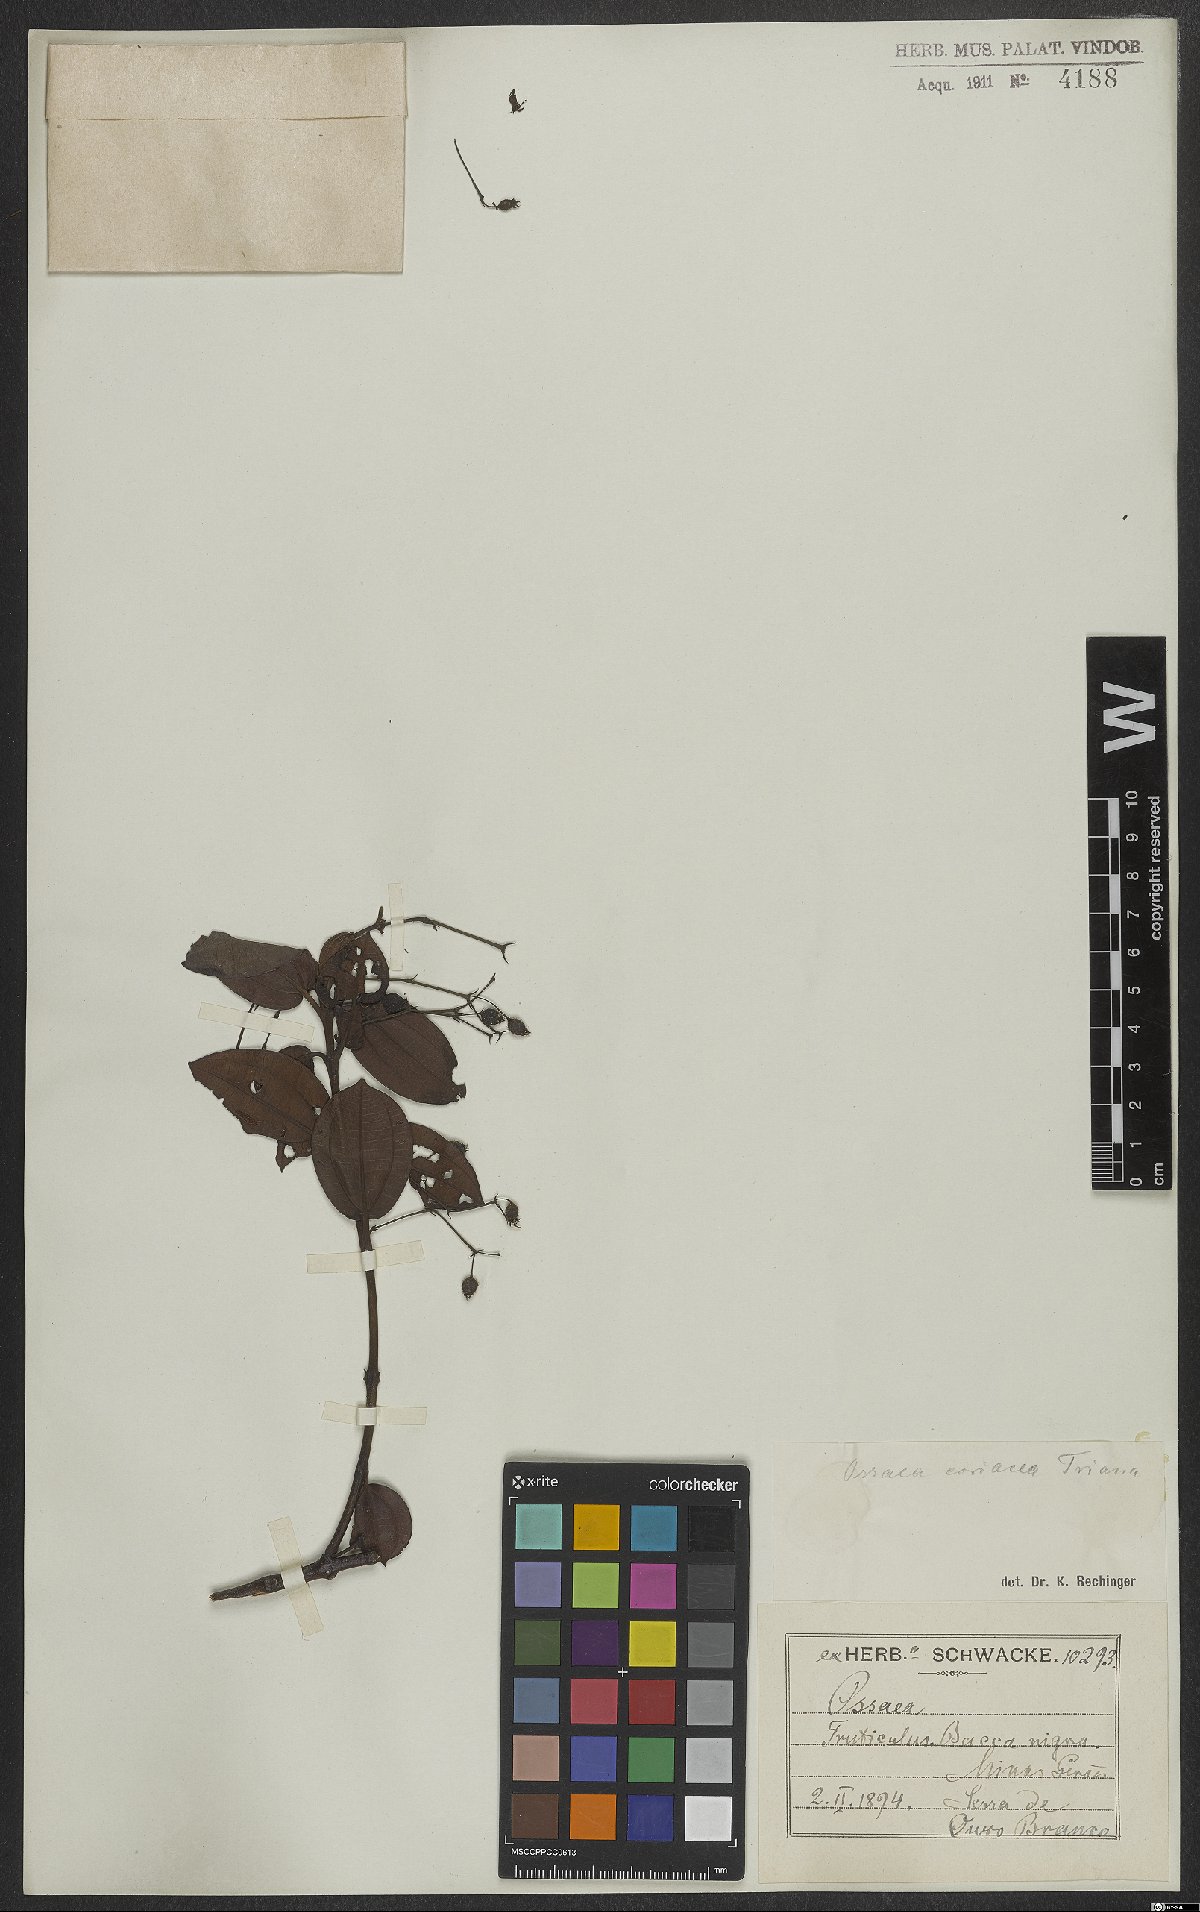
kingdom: Plantae
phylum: Tracheophyta
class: Magnoliopsida
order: Myrtales
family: Melastomataceae
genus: Miconia
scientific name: Miconia leabiscoriacea
